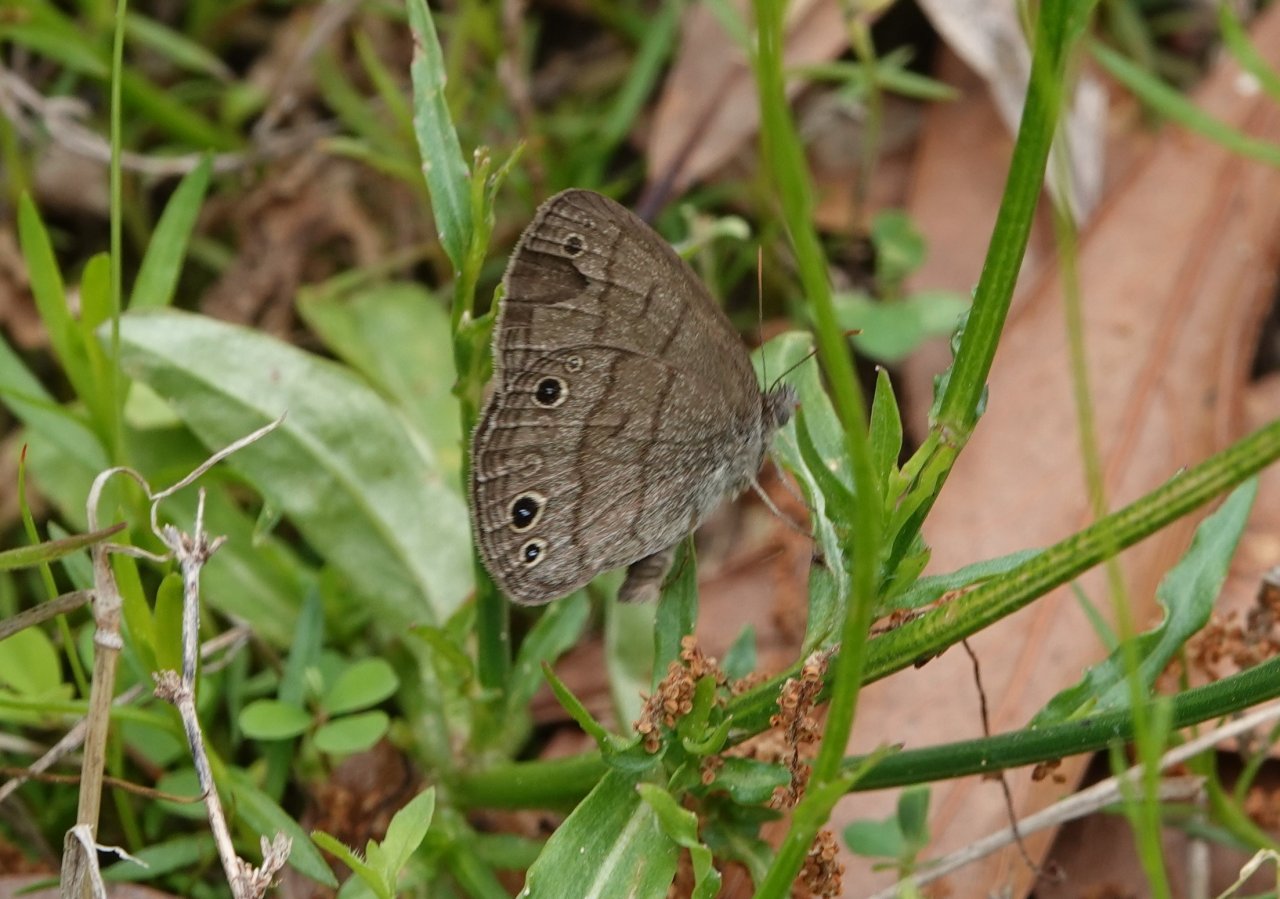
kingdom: Animalia
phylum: Arthropoda
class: Insecta
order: Lepidoptera
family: Nymphalidae
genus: Hermeuptychia
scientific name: Hermeuptychia hermes
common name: Carolina Satyr
